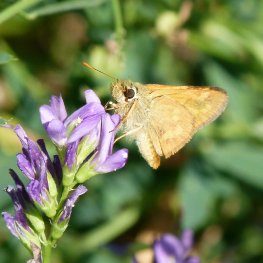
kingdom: Animalia
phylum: Arthropoda
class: Insecta
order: Lepidoptera
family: Hesperiidae
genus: Ochlodes
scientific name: Ochlodes sylvanoides
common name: Woodland Skipper
